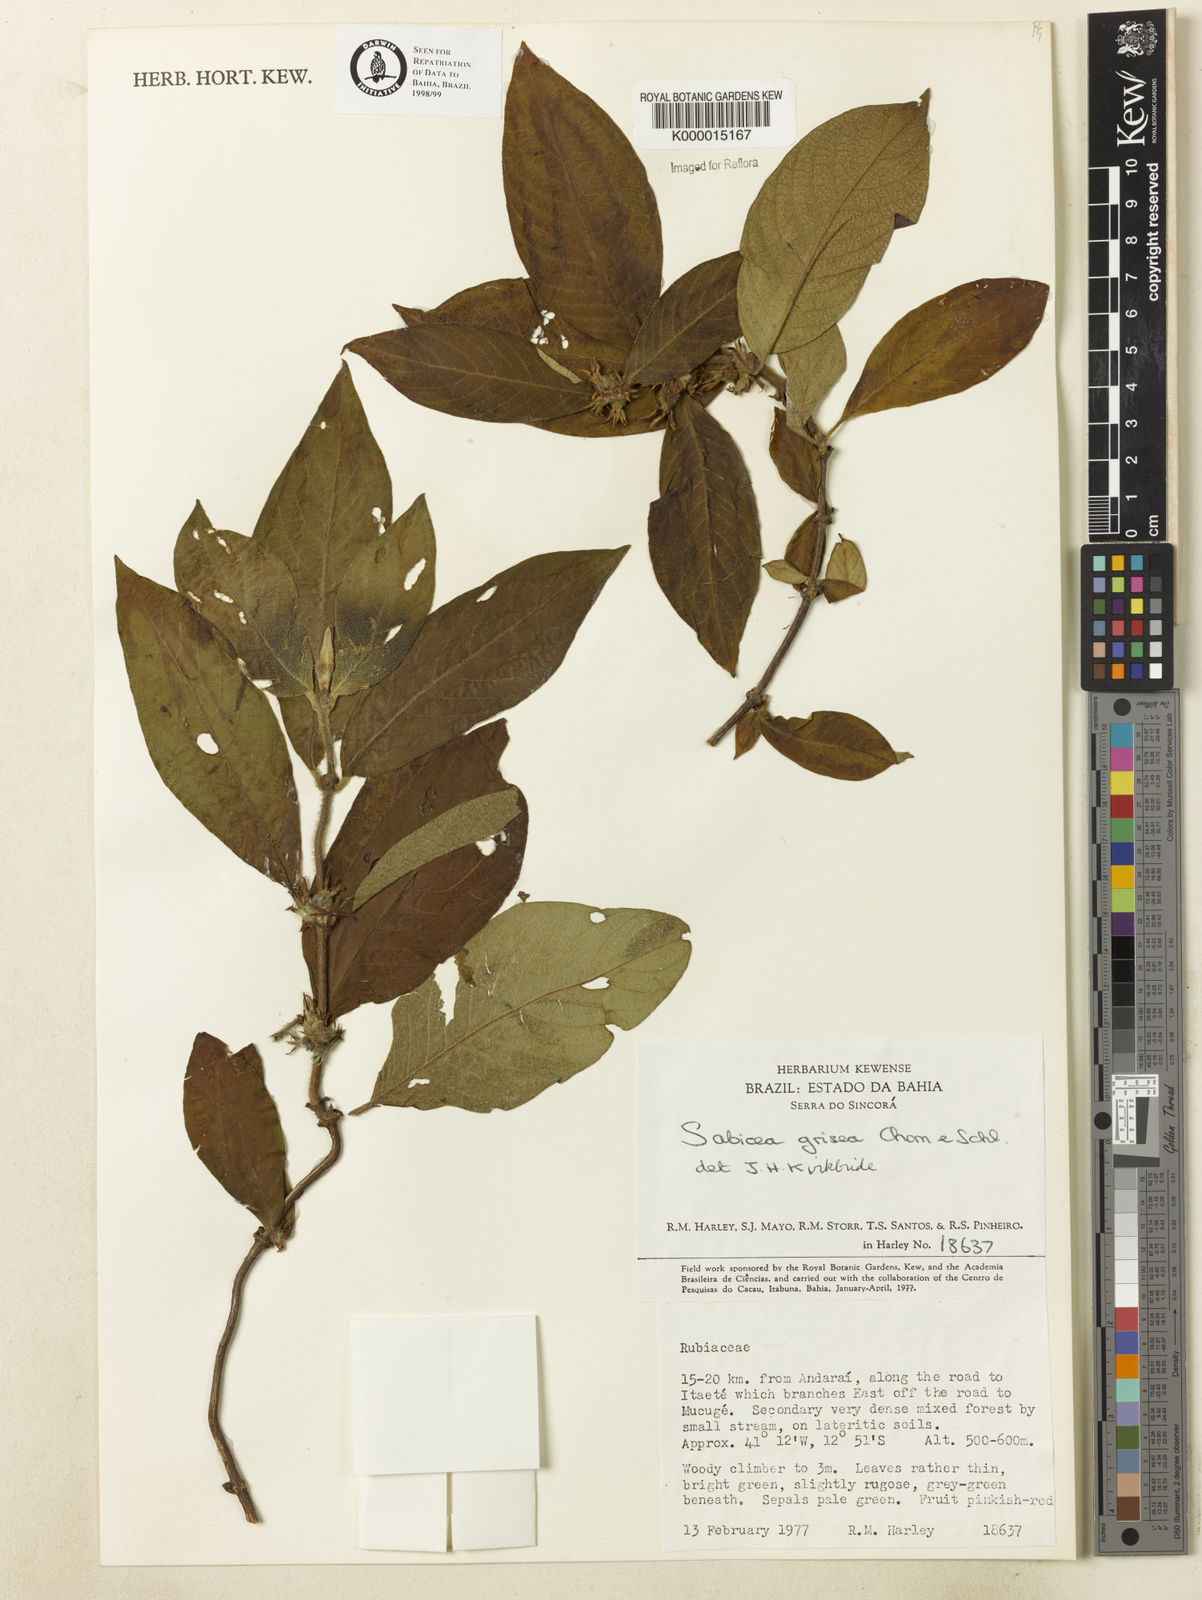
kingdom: Plantae
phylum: Tracheophyta
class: Magnoliopsida
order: Gentianales
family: Rubiaceae
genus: Sabicea
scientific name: Sabicea grisea
